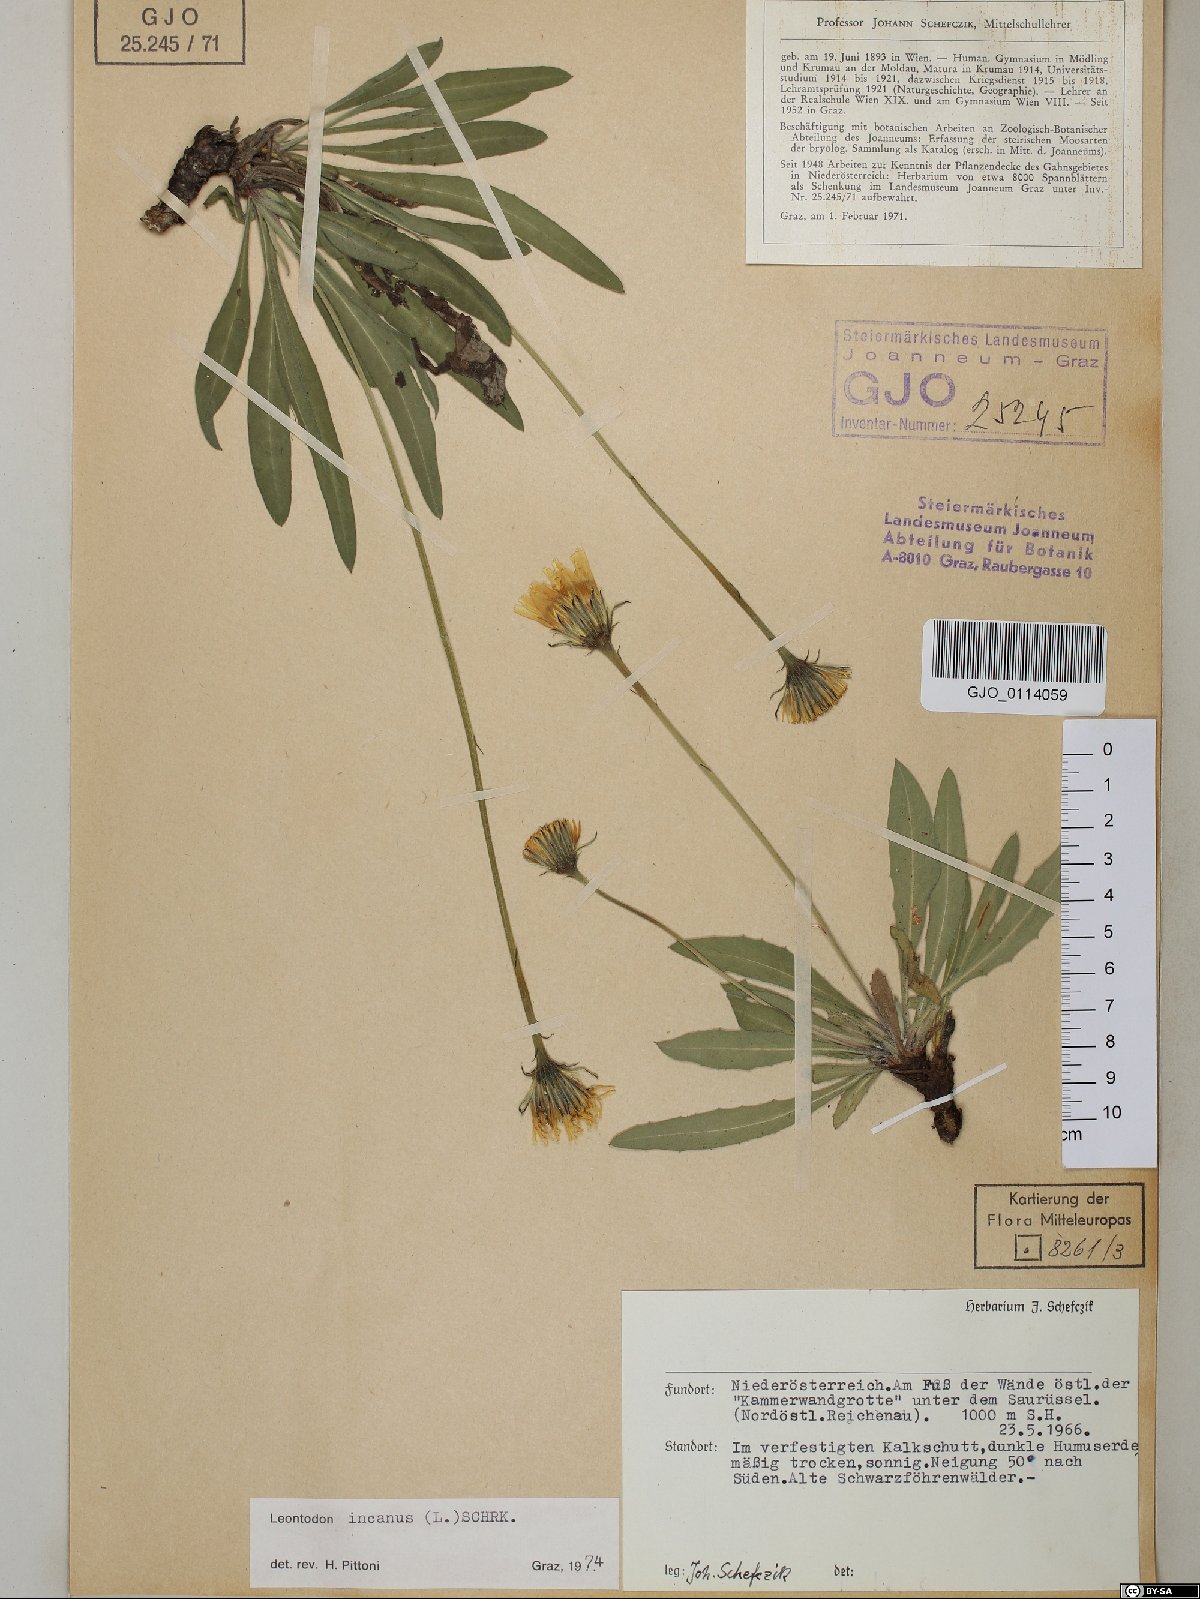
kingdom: Plantae
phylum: Tracheophyta
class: Magnoliopsida
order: Asterales
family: Asteraceae
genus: Leontodon
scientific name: Leontodon incanus
